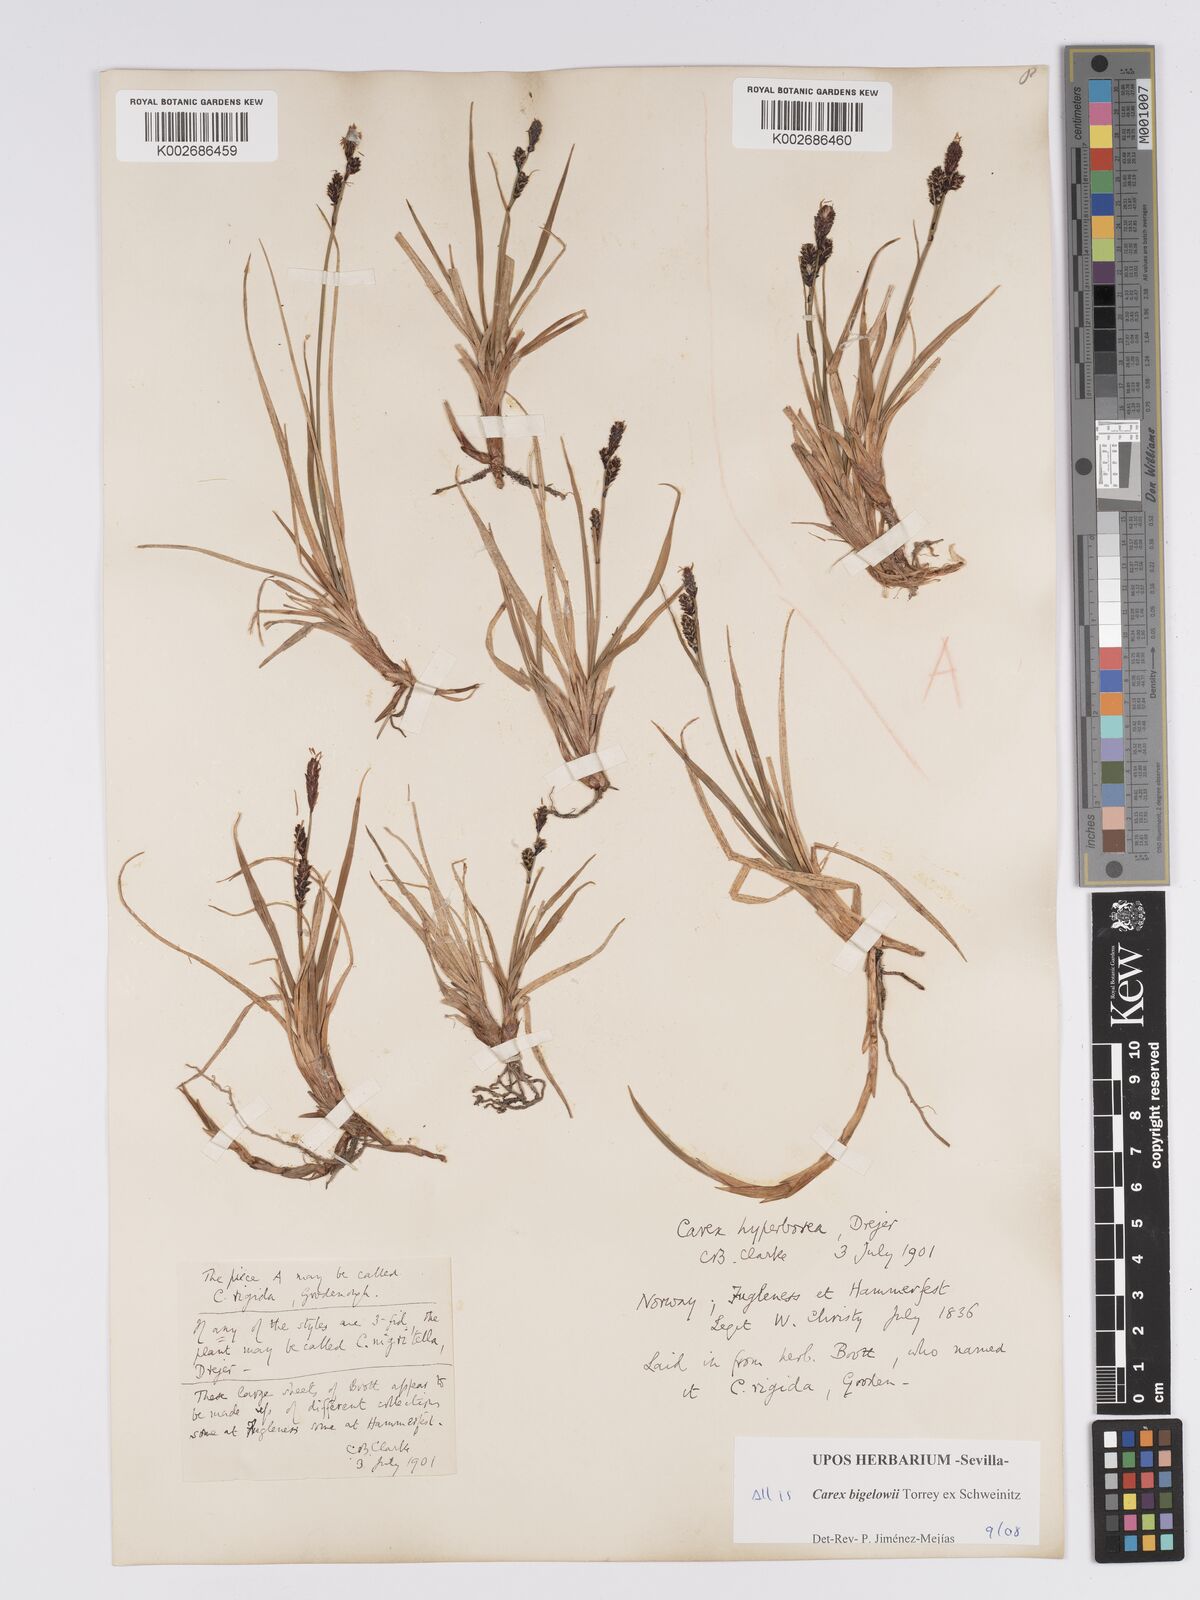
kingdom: Plantae
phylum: Tracheophyta
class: Liliopsida
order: Poales
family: Cyperaceae
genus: Carex
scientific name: Carex bigelowii
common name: Stiff sedge
